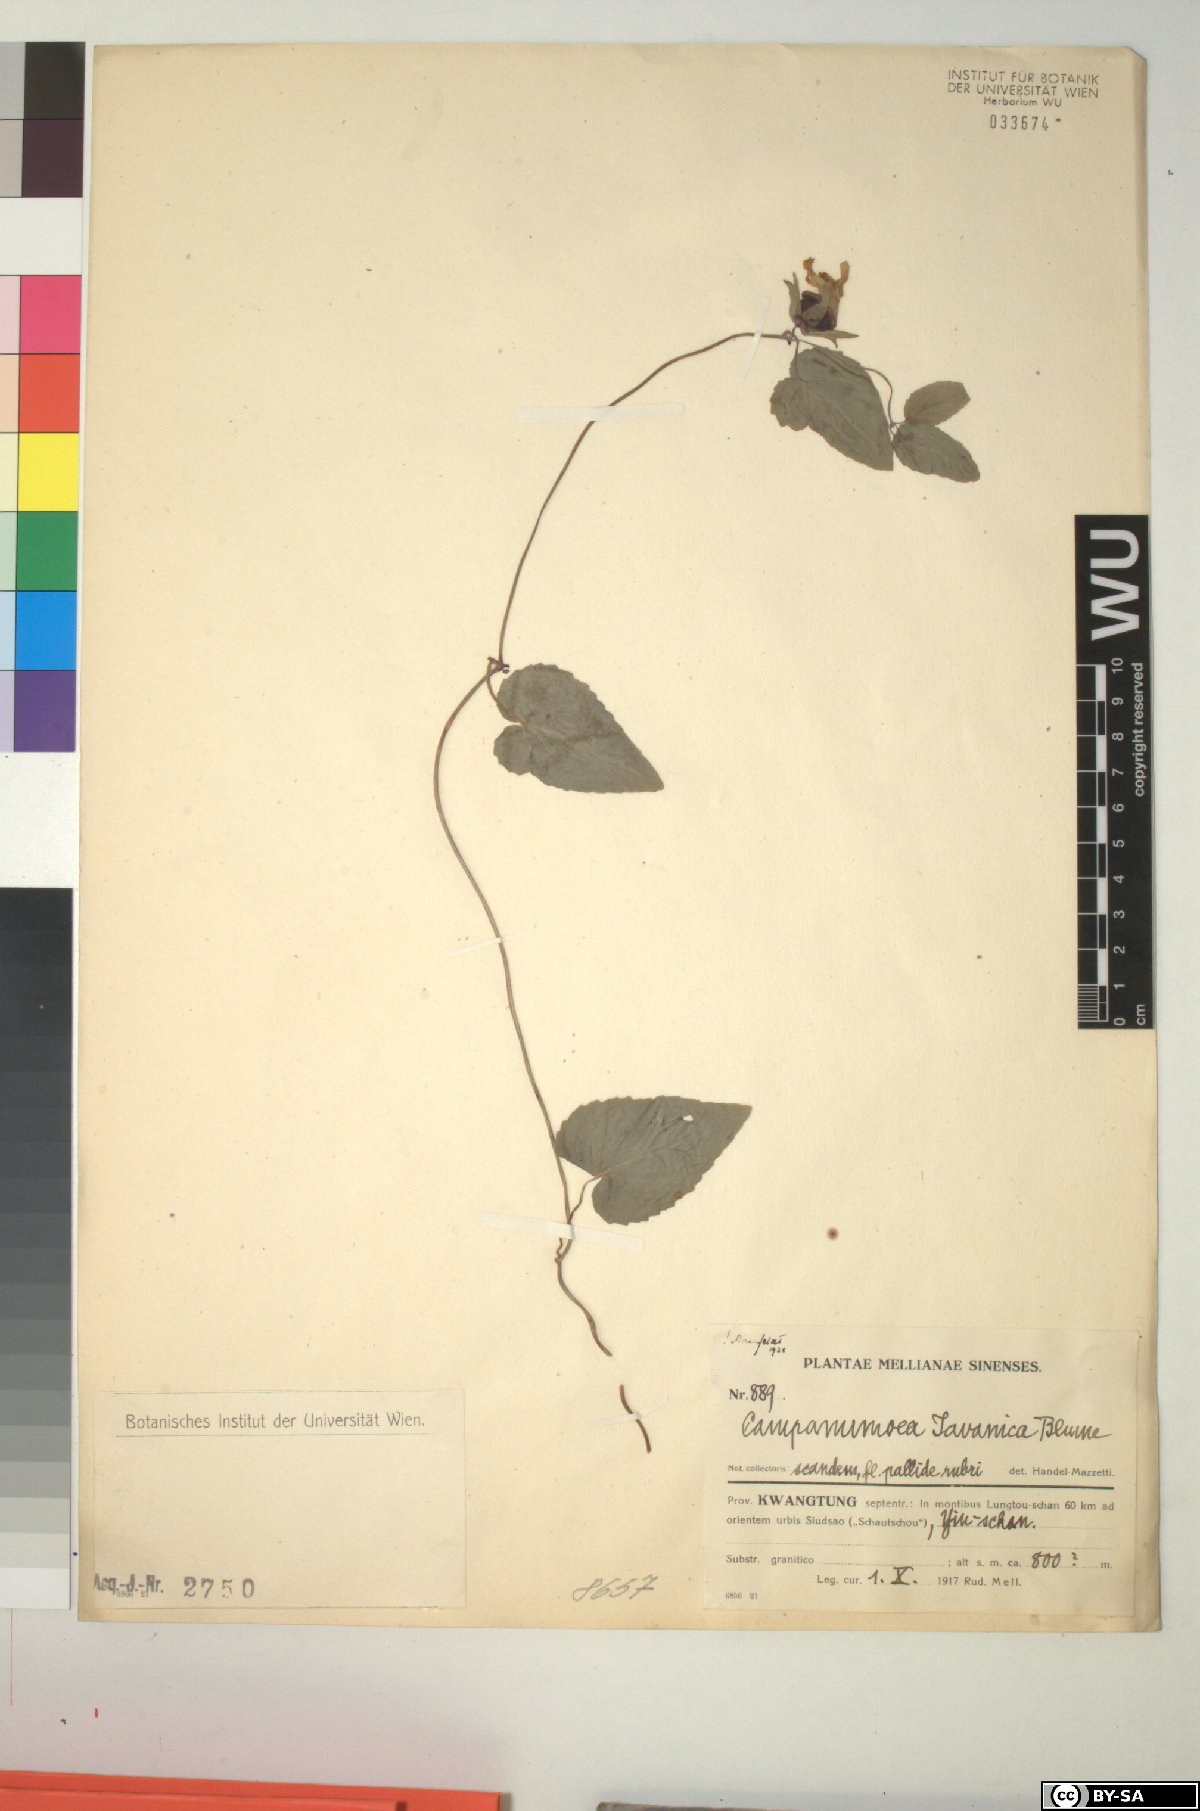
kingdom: Plantae
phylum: Tracheophyta
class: Magnoliopsida
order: Asterales
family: Campanulaceae
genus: Codonopsis
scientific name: Codonopsis javanica
